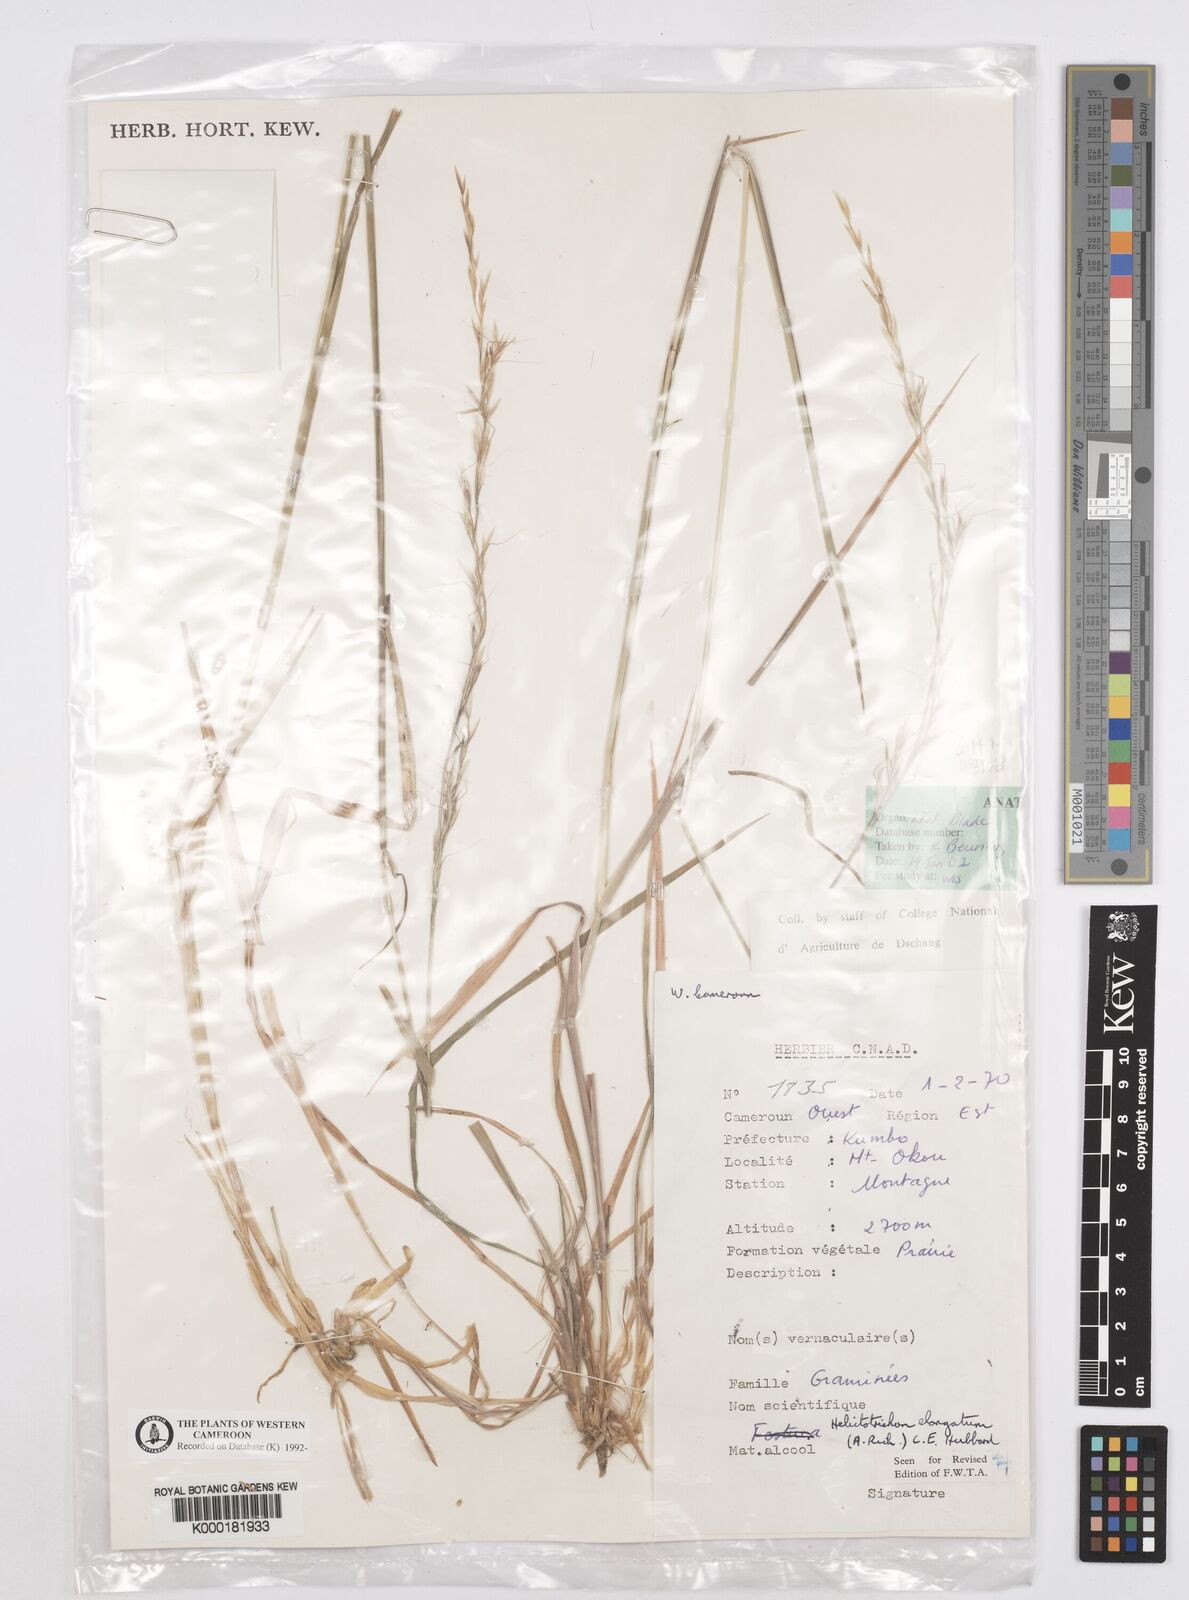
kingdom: Plantae
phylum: Tracheophyta
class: Liliopsida
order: Poales
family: Poaceae
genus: Trisetopsis
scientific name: Trisetopsis elongata
